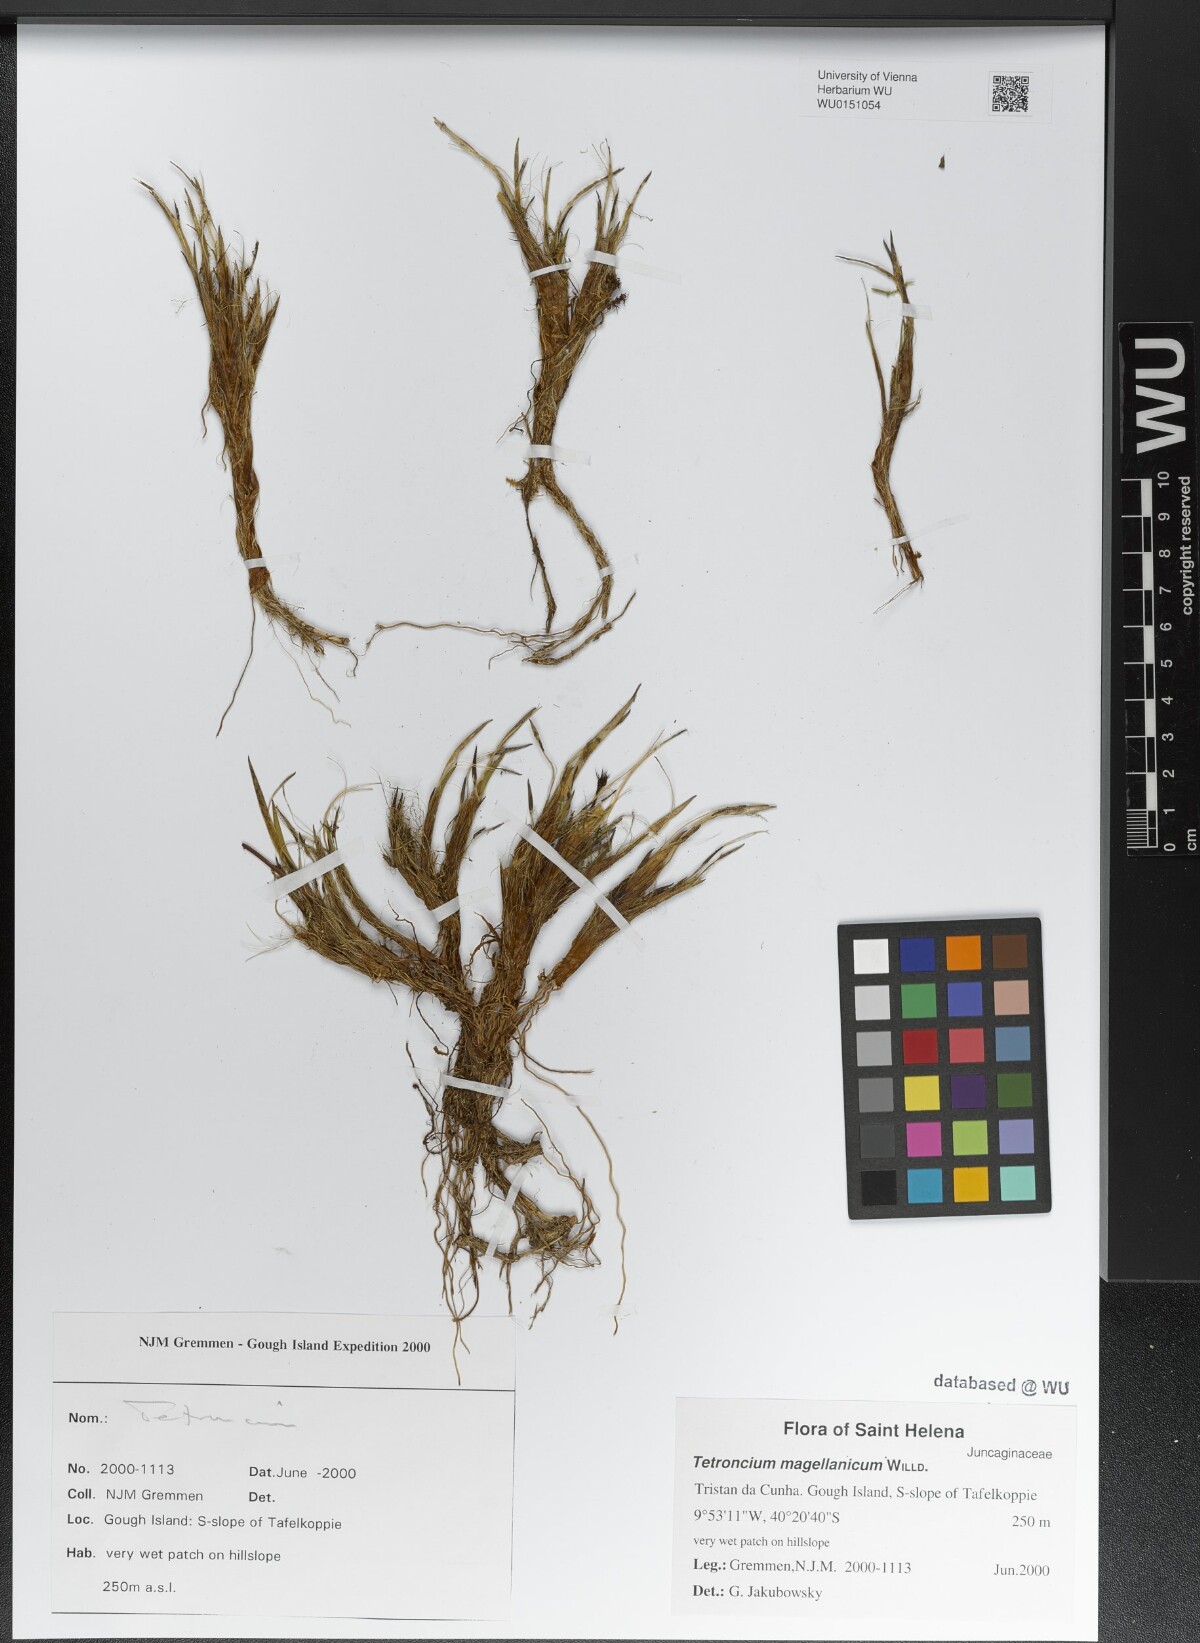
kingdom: Plantae
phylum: Tracheophyta
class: Liliopsida
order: Alismatales
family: Juncaginaceae
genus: Tetroncium
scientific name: Tetroncium magellanicum
